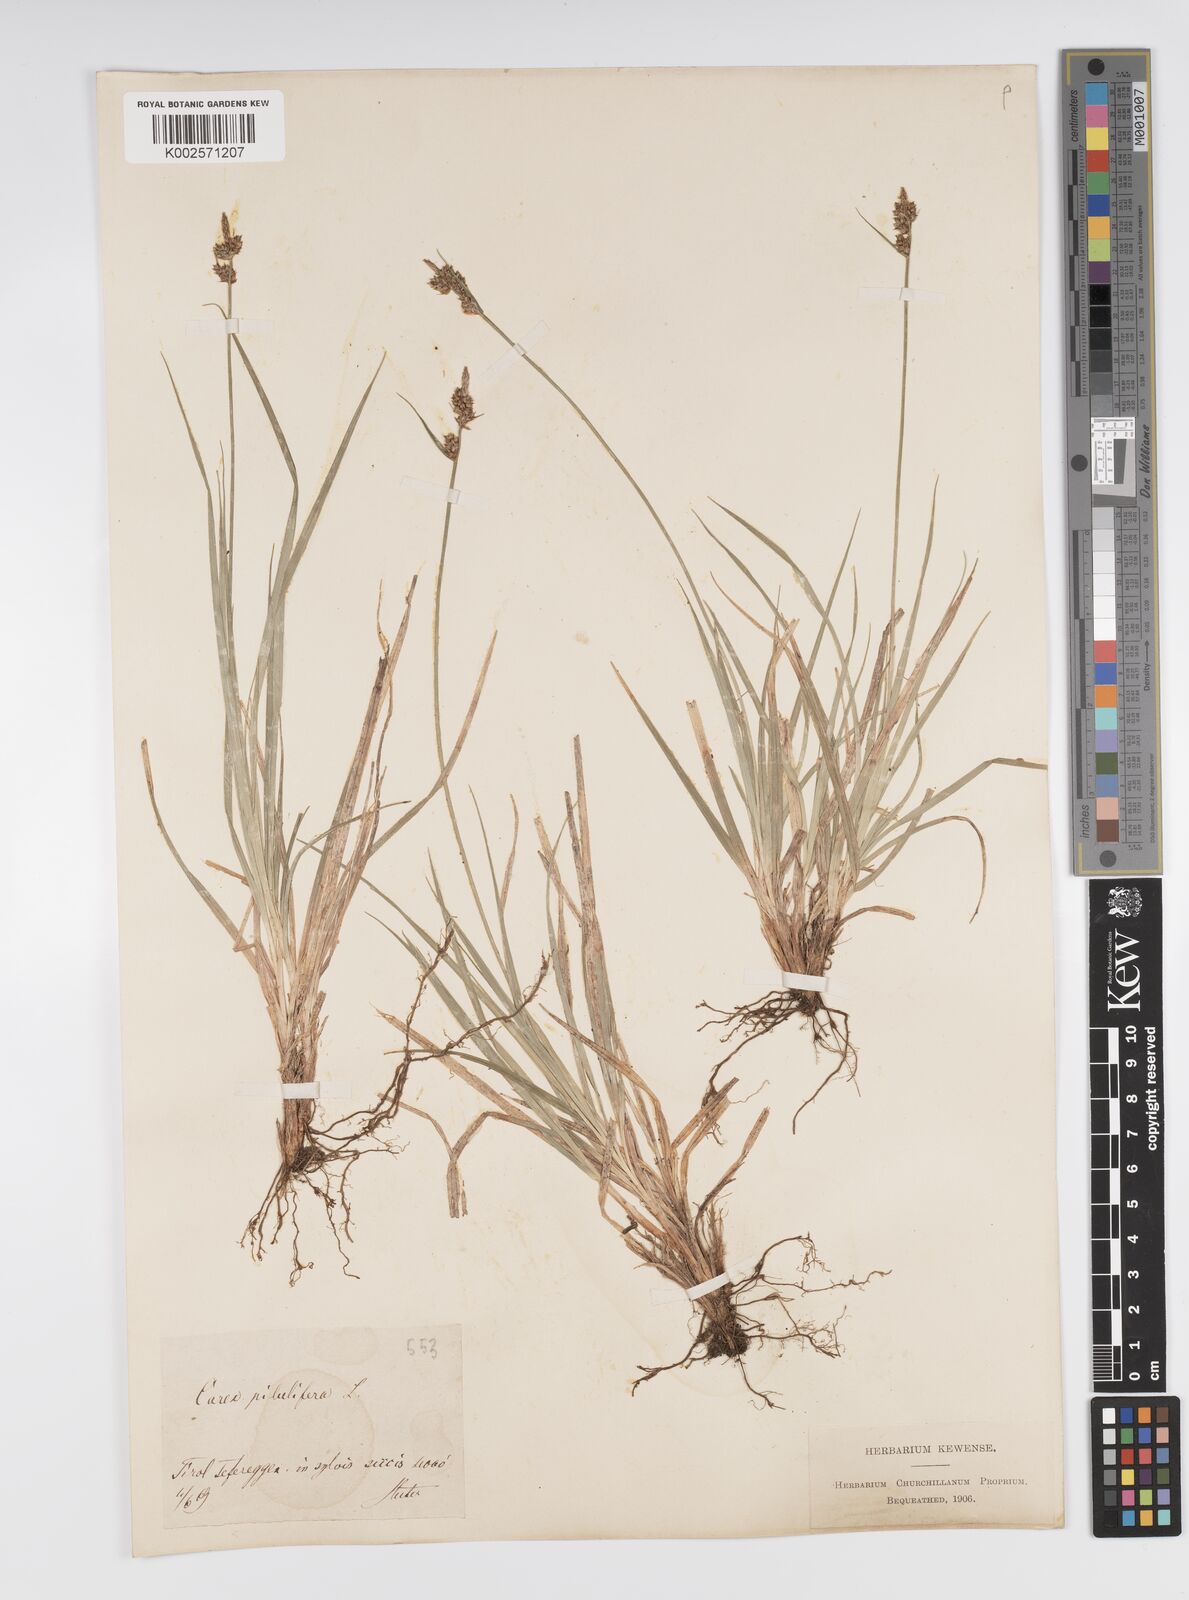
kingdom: Plantae
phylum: Tracheophyta
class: Liliopsida
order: Poales
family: Cyperaceae
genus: Carex
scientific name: Carex pilulifera
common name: Pill sedge
